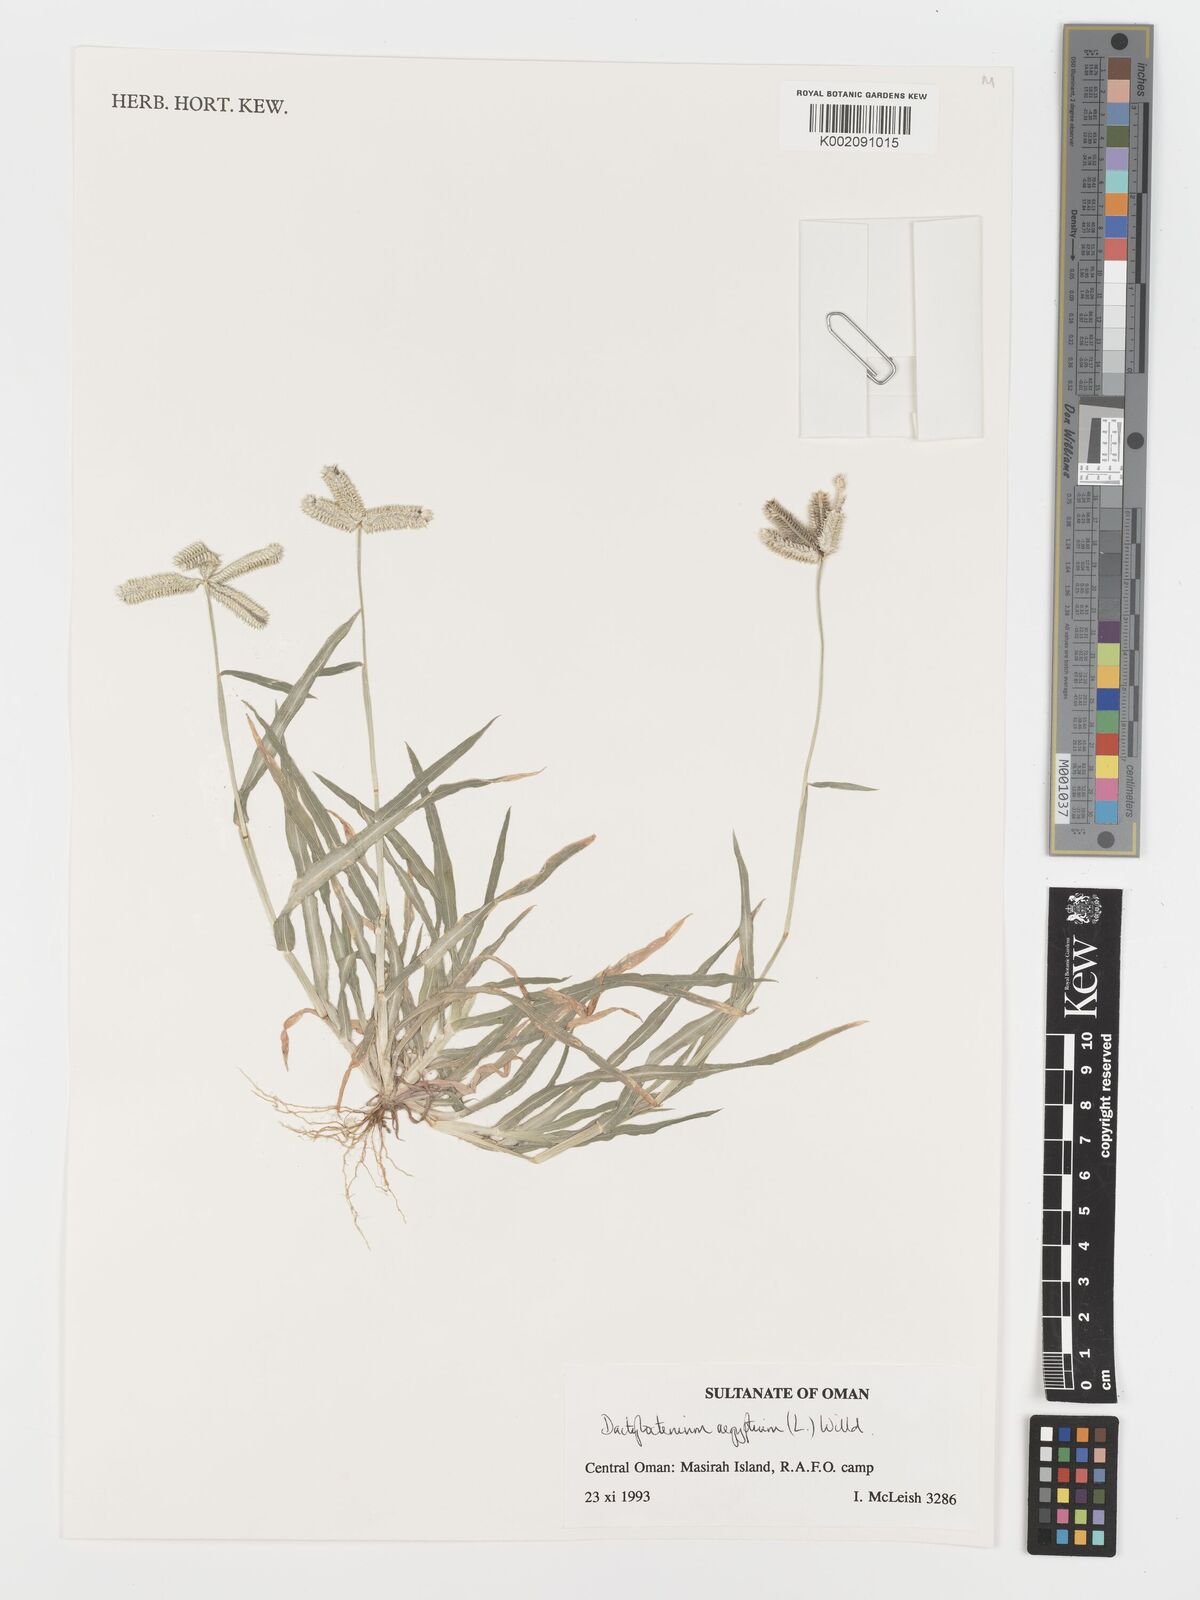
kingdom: Plantae
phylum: Tracheophyta
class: Liliopsida
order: Poales
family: Poaceae
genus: Dactyloctenium
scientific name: Dactyloctenium aegyptium
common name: Egyptian grass
